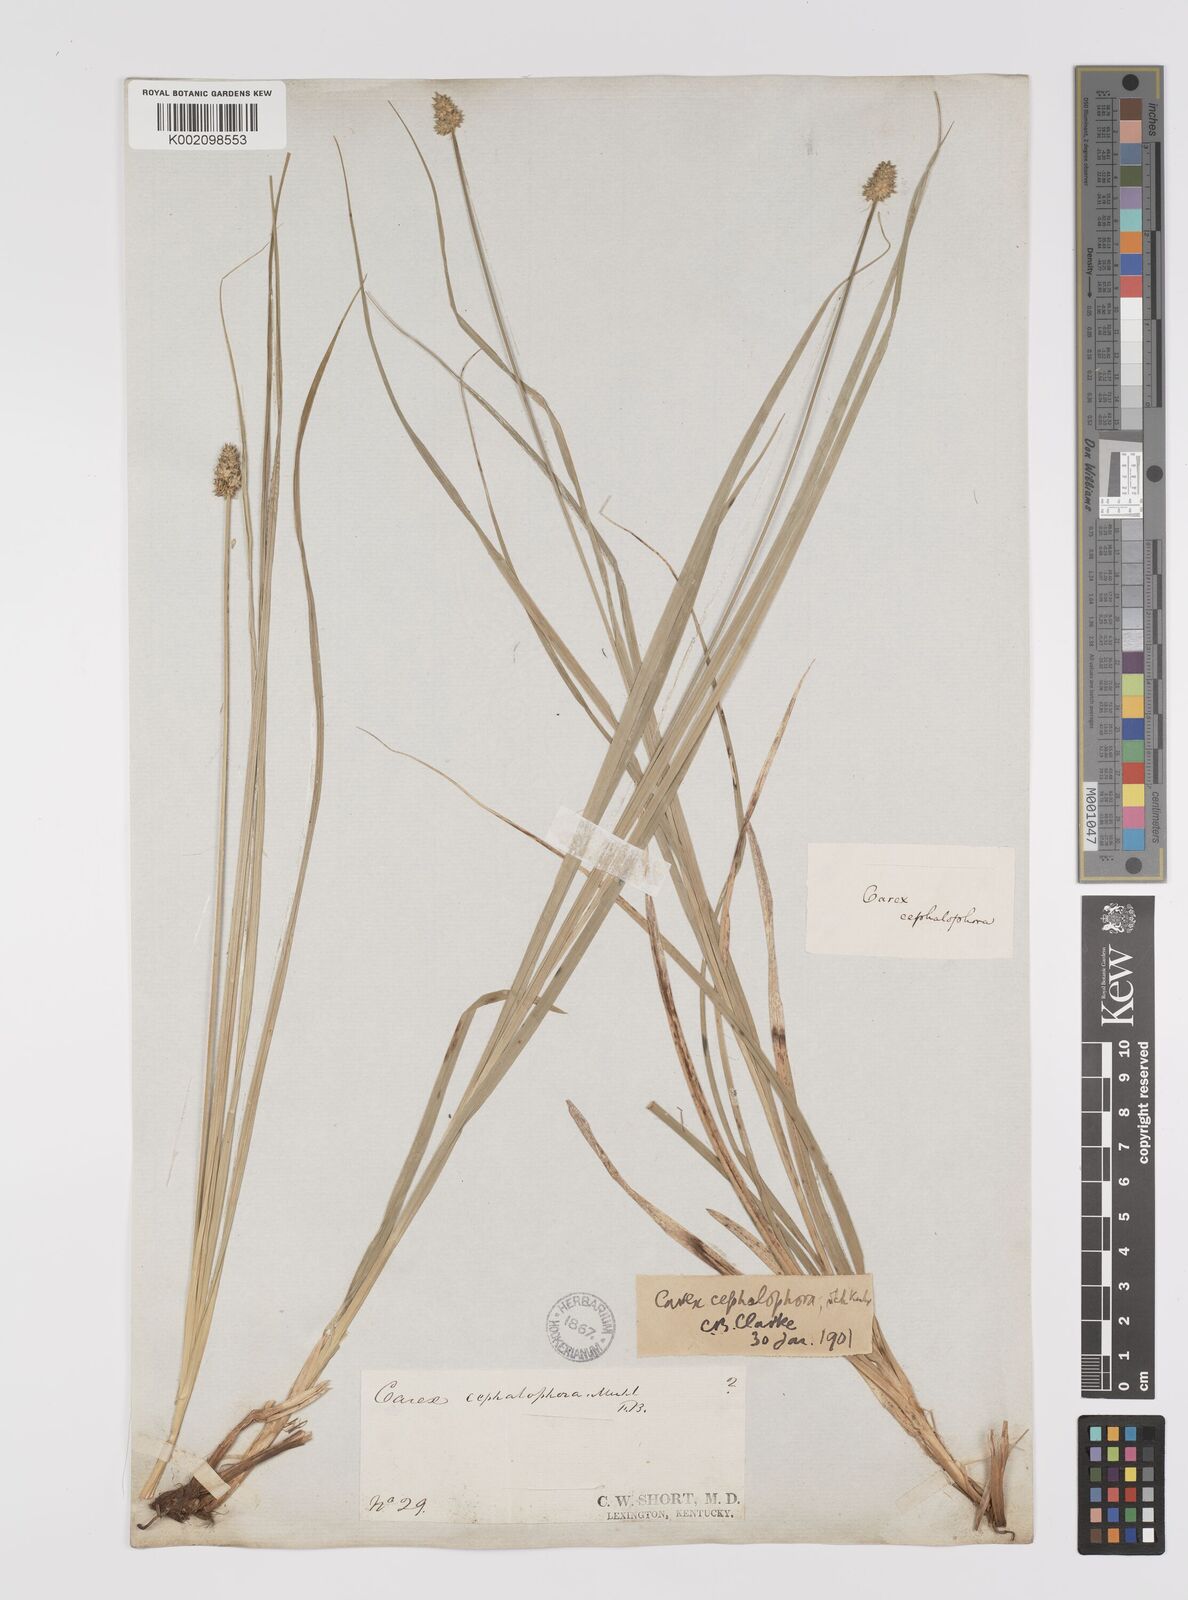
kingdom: Plantae
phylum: Tracheophyta
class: Liliopsida
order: Poales
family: Cyperaceae
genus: Carex
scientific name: Carex cephalophora
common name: Oval-headed sedge
